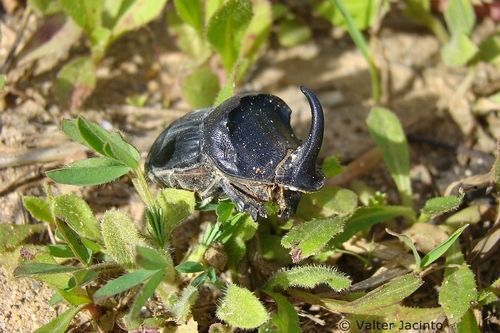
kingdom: Animalia
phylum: Arthropoda
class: Insecta
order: Coleoptera
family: Scarabaeidae
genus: Copris
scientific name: Copris hispanus
